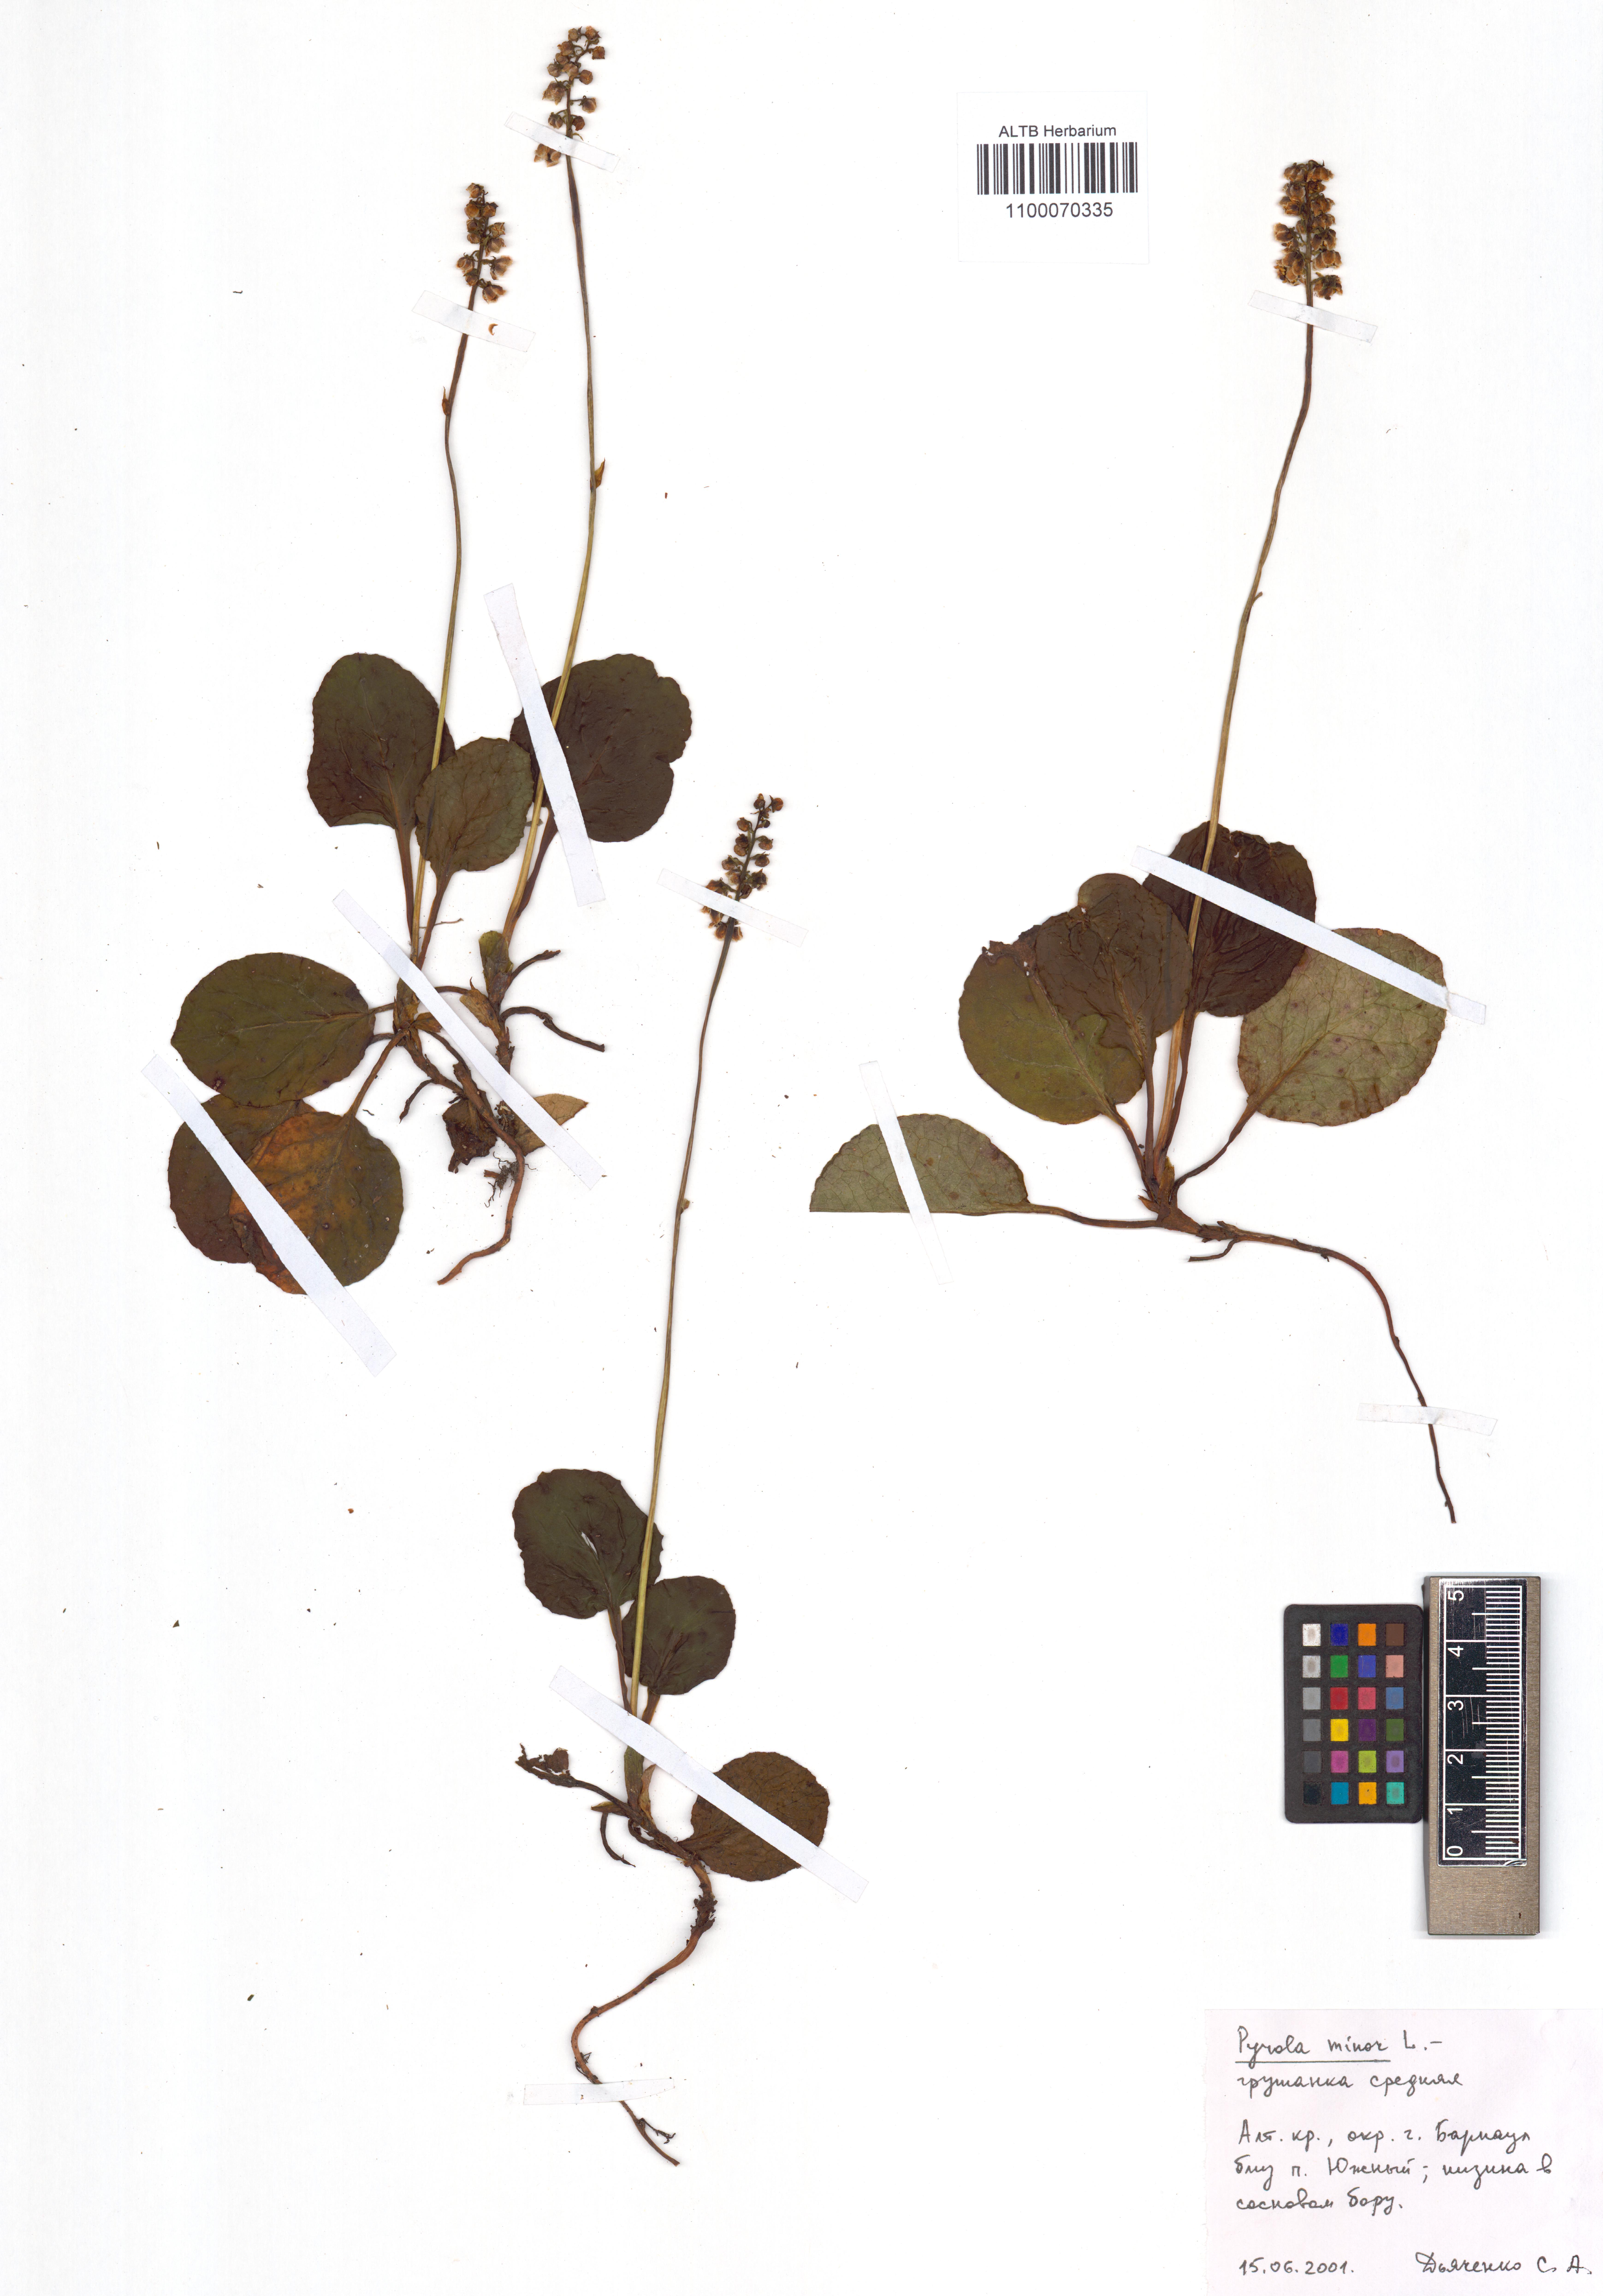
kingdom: Plantae
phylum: Tracheophyta
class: Magnoliopsida
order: Ericales
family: Ericaceae
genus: Pyrola
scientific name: Pyrola minor
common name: Common wintergreen
